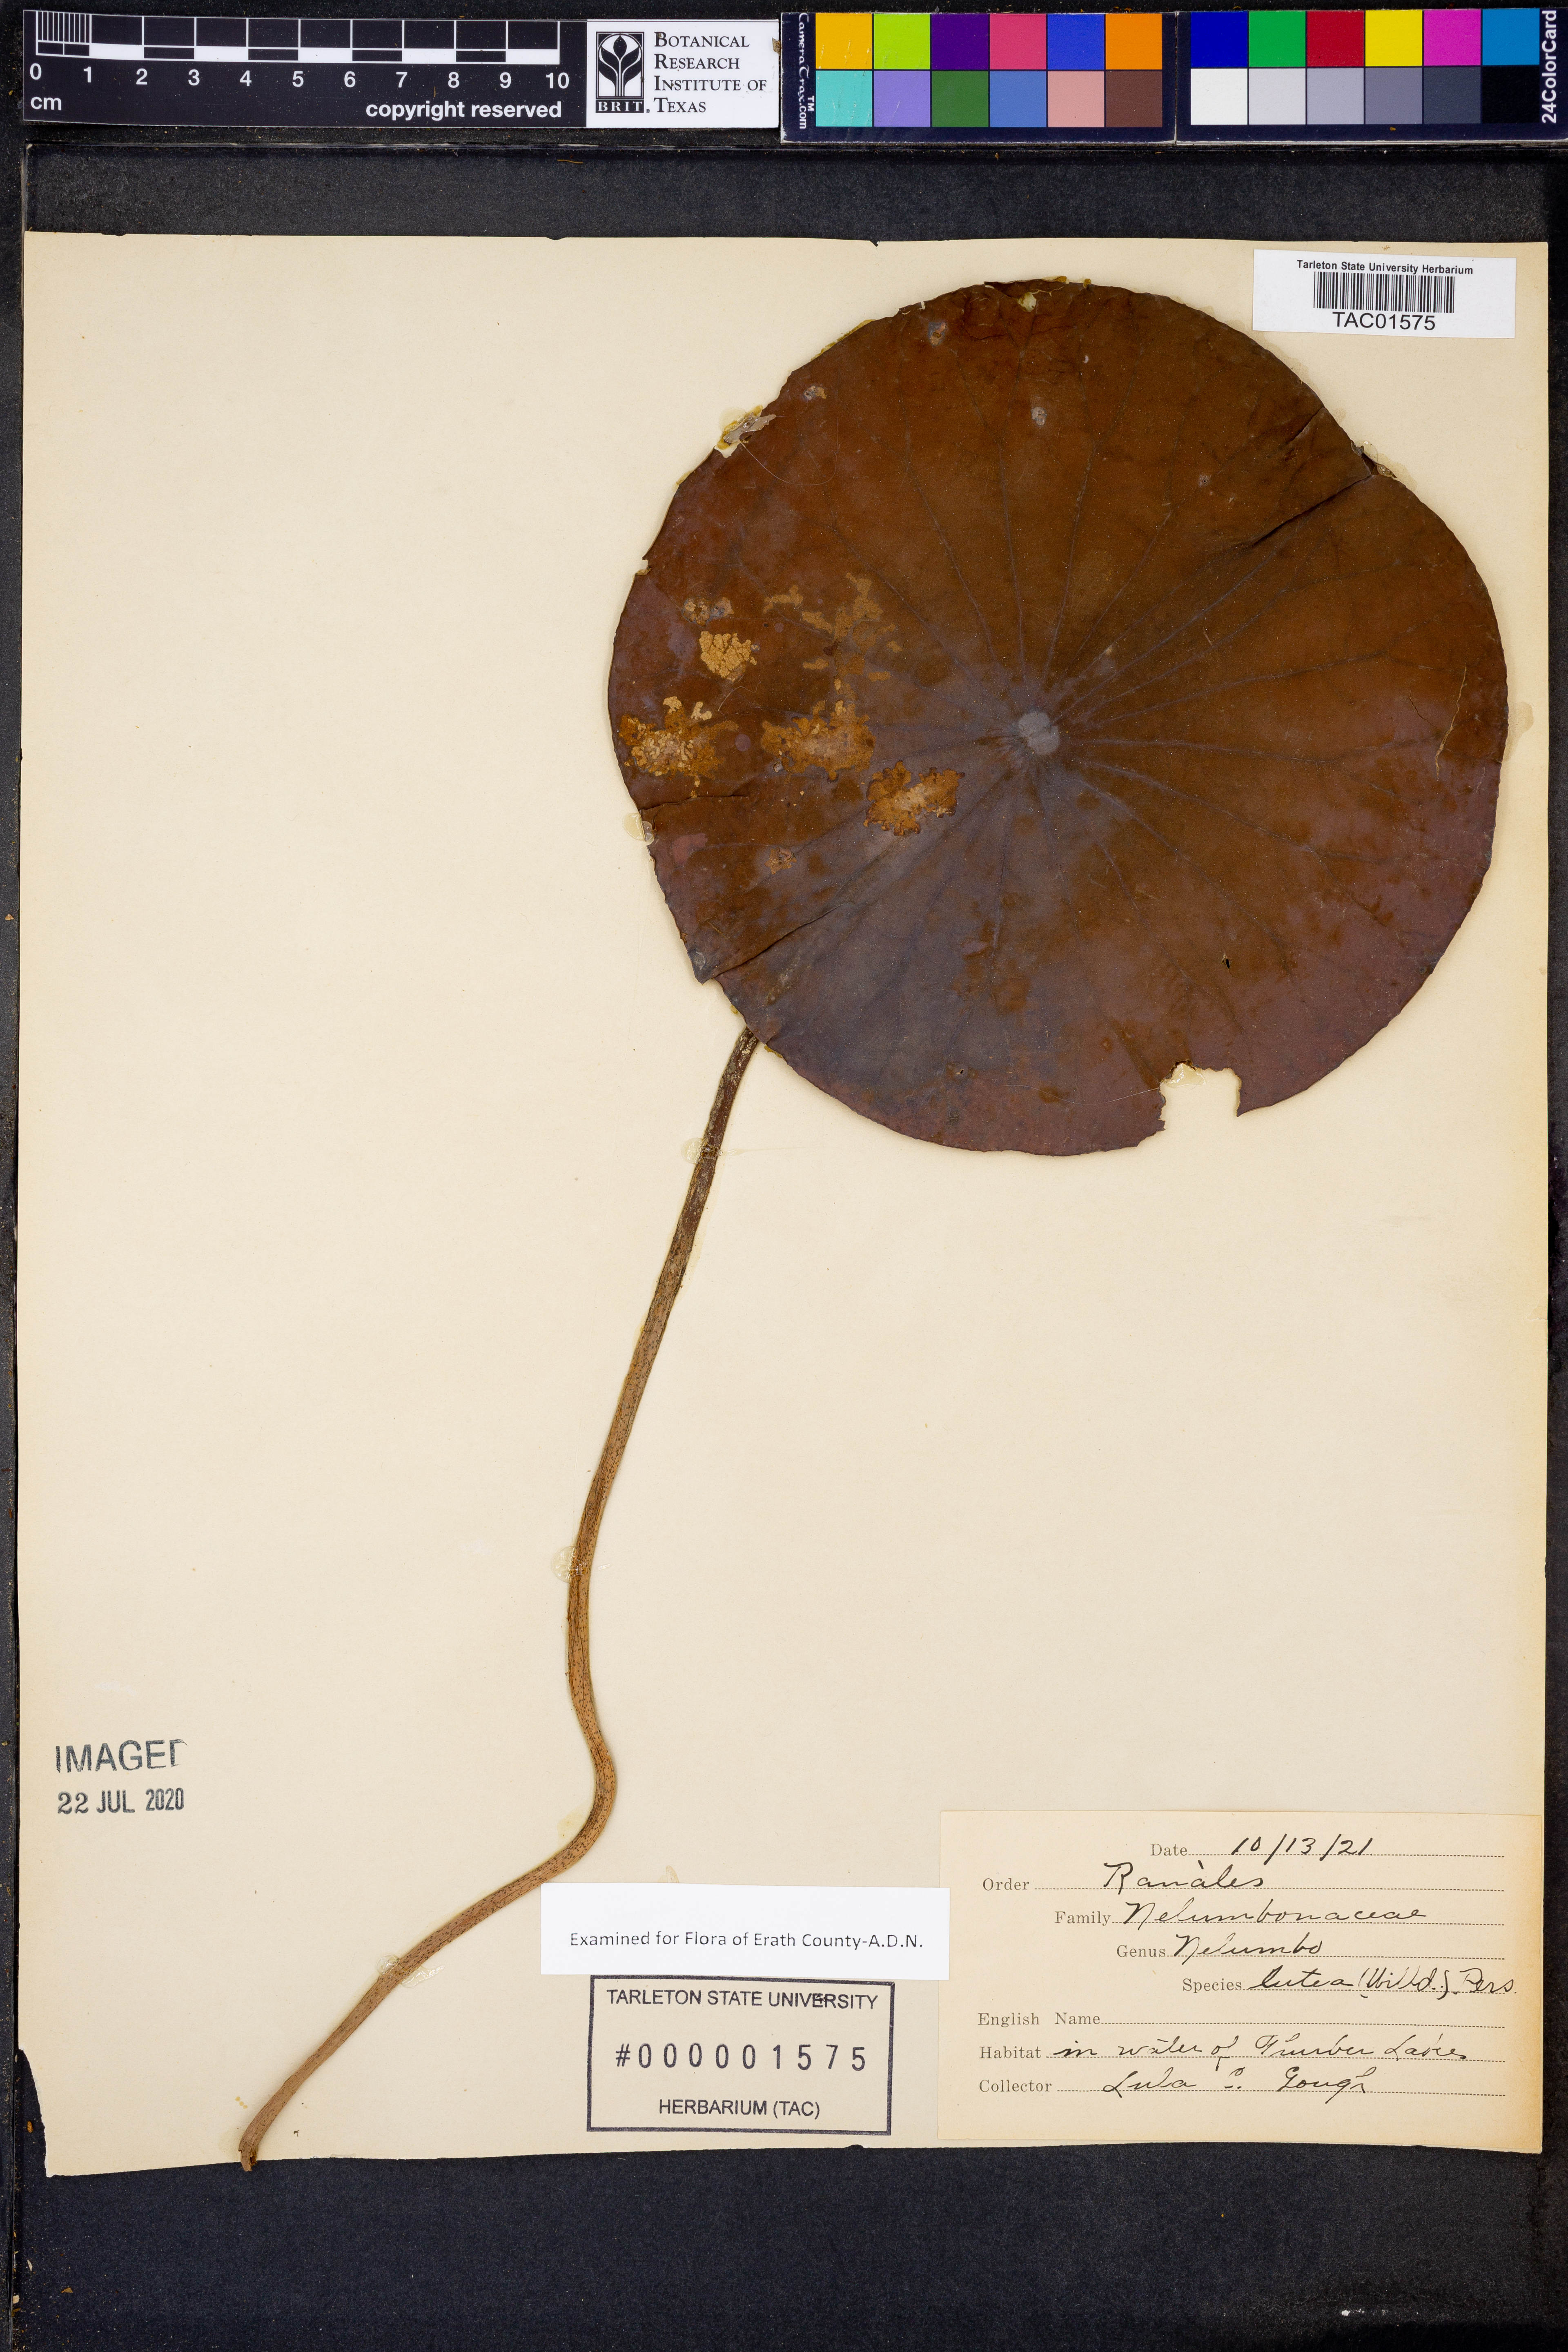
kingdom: Plantae
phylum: Tracheophyta
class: Magnoliopsida
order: Proteales
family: Nelumbonaceae
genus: Nelumbo
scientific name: Nelumbo lutea
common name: American lotus
